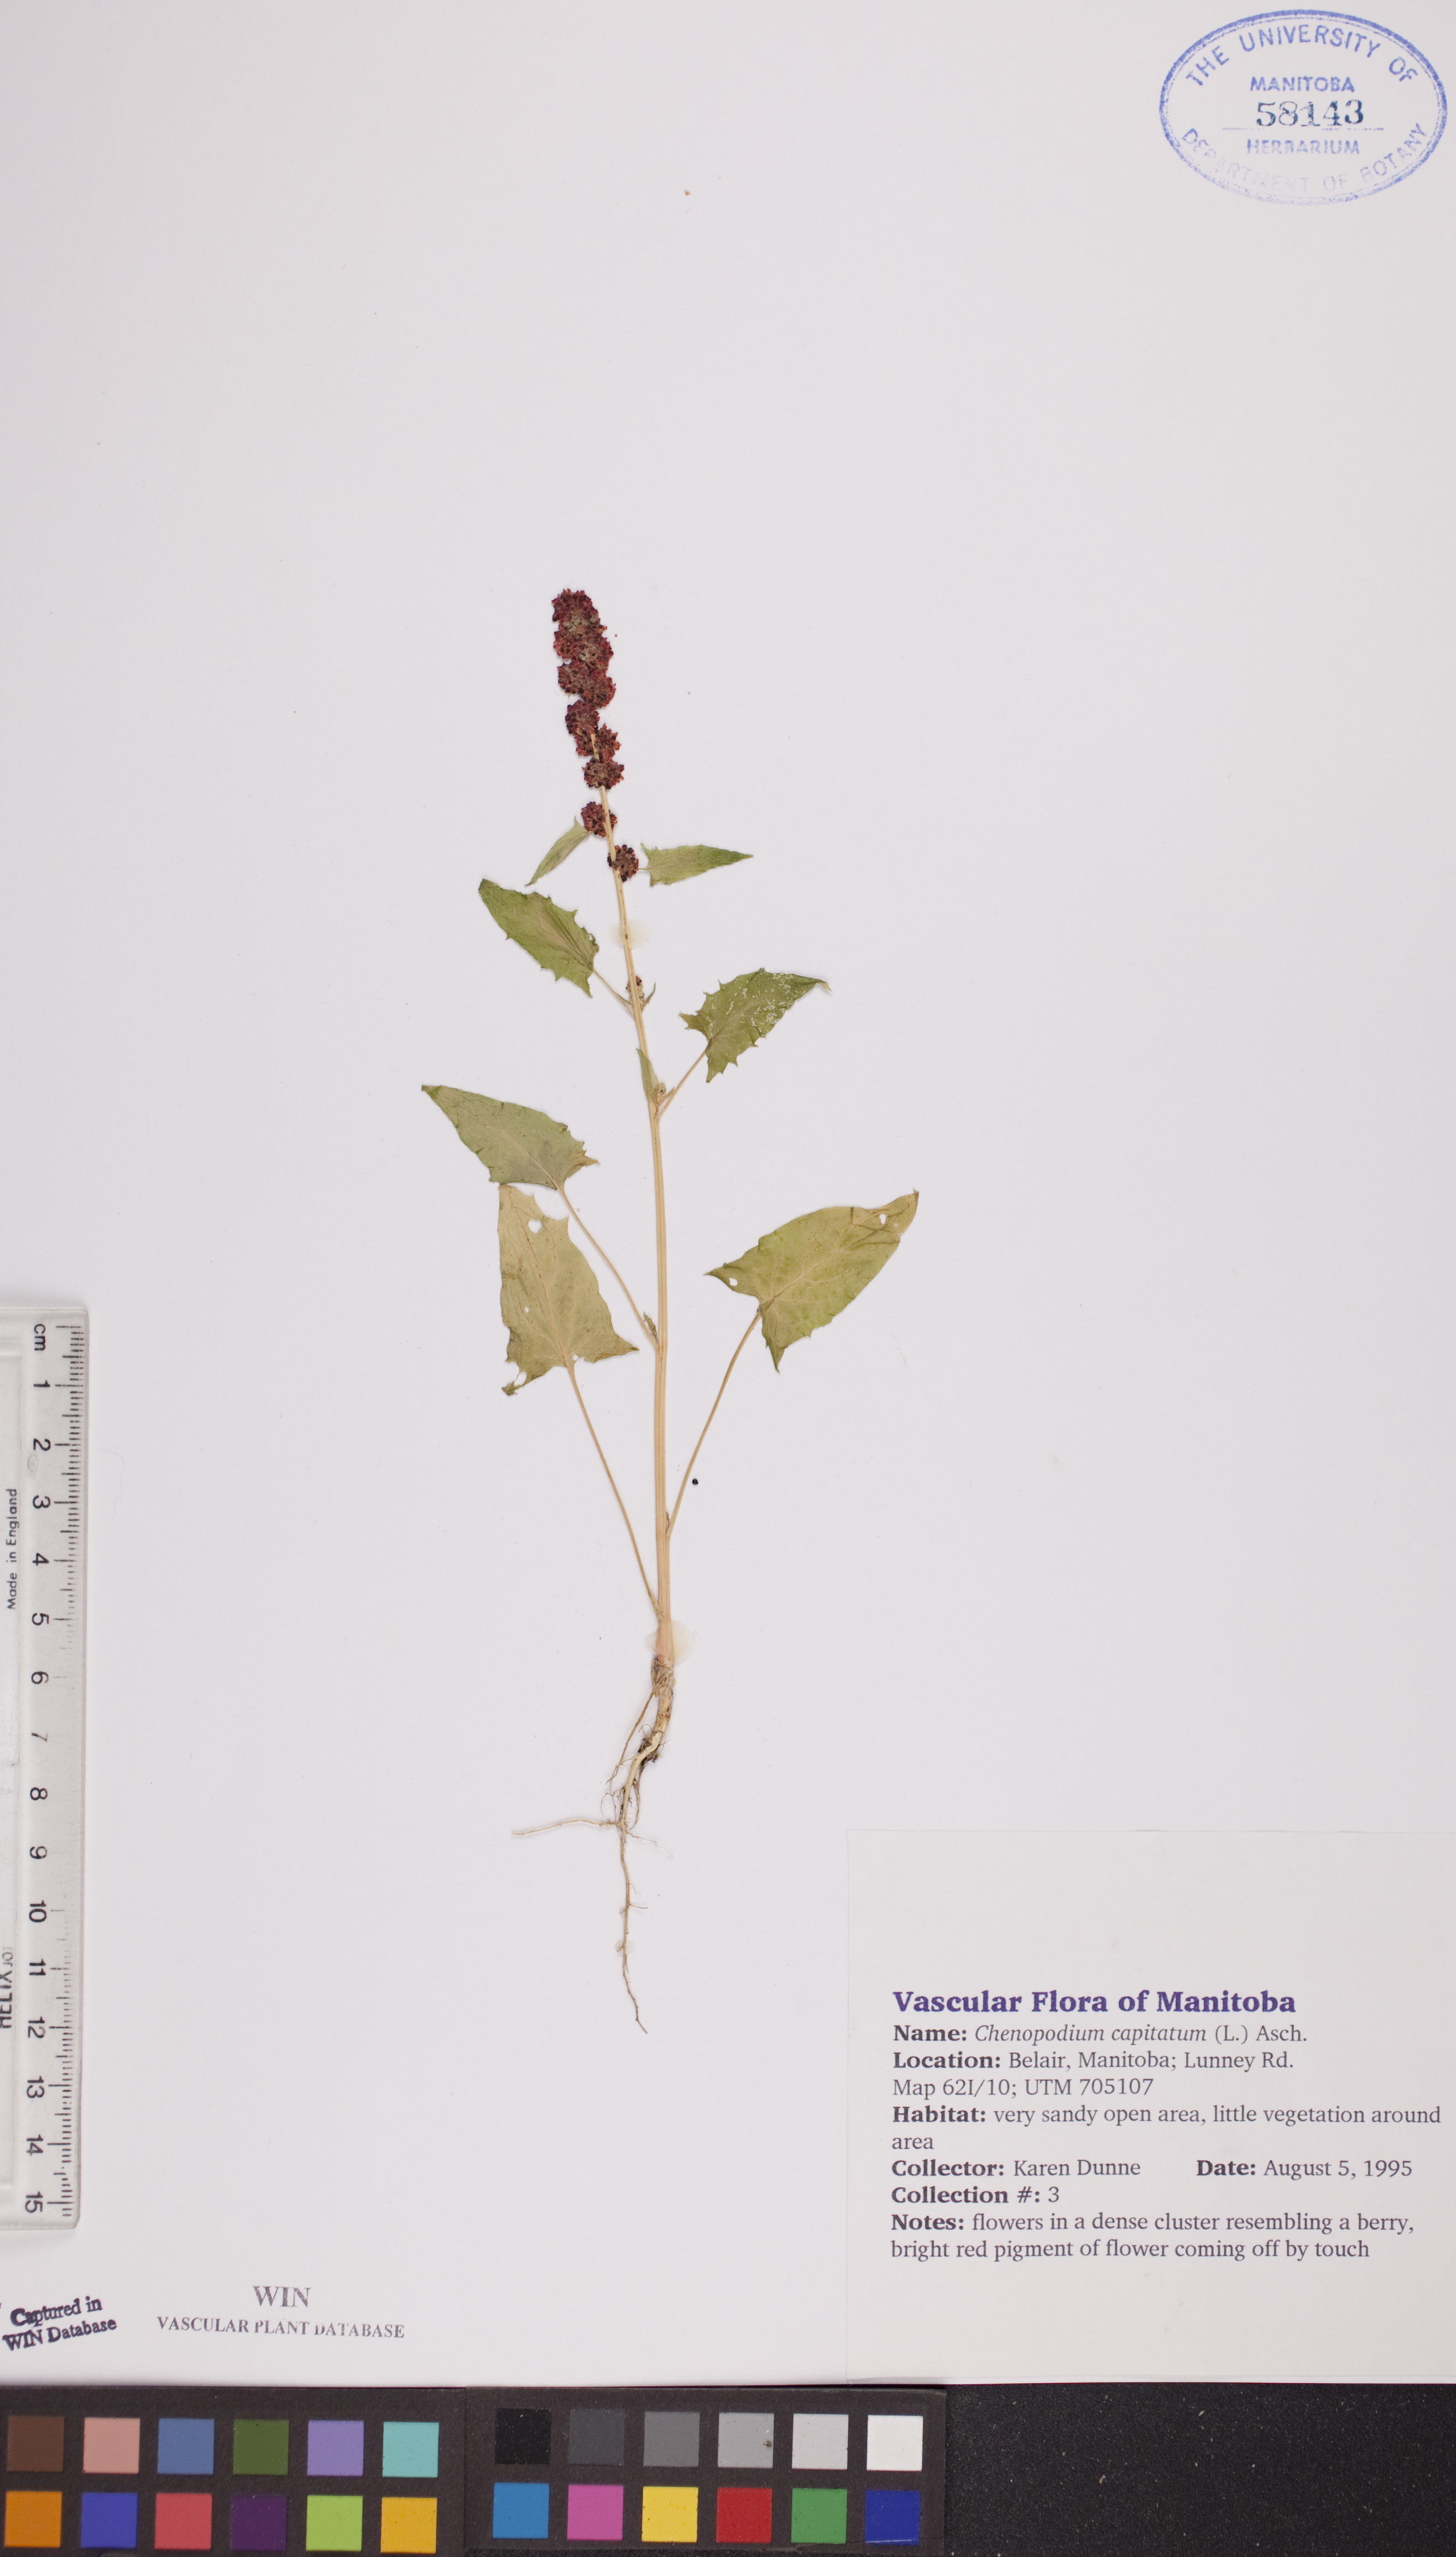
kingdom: Plantae
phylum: Tracheophyta
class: Magnoliopsida
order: Caryophyllales
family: Amaranthaceae
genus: Blitum
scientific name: Blitum capitatum
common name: Strawberry-blight
